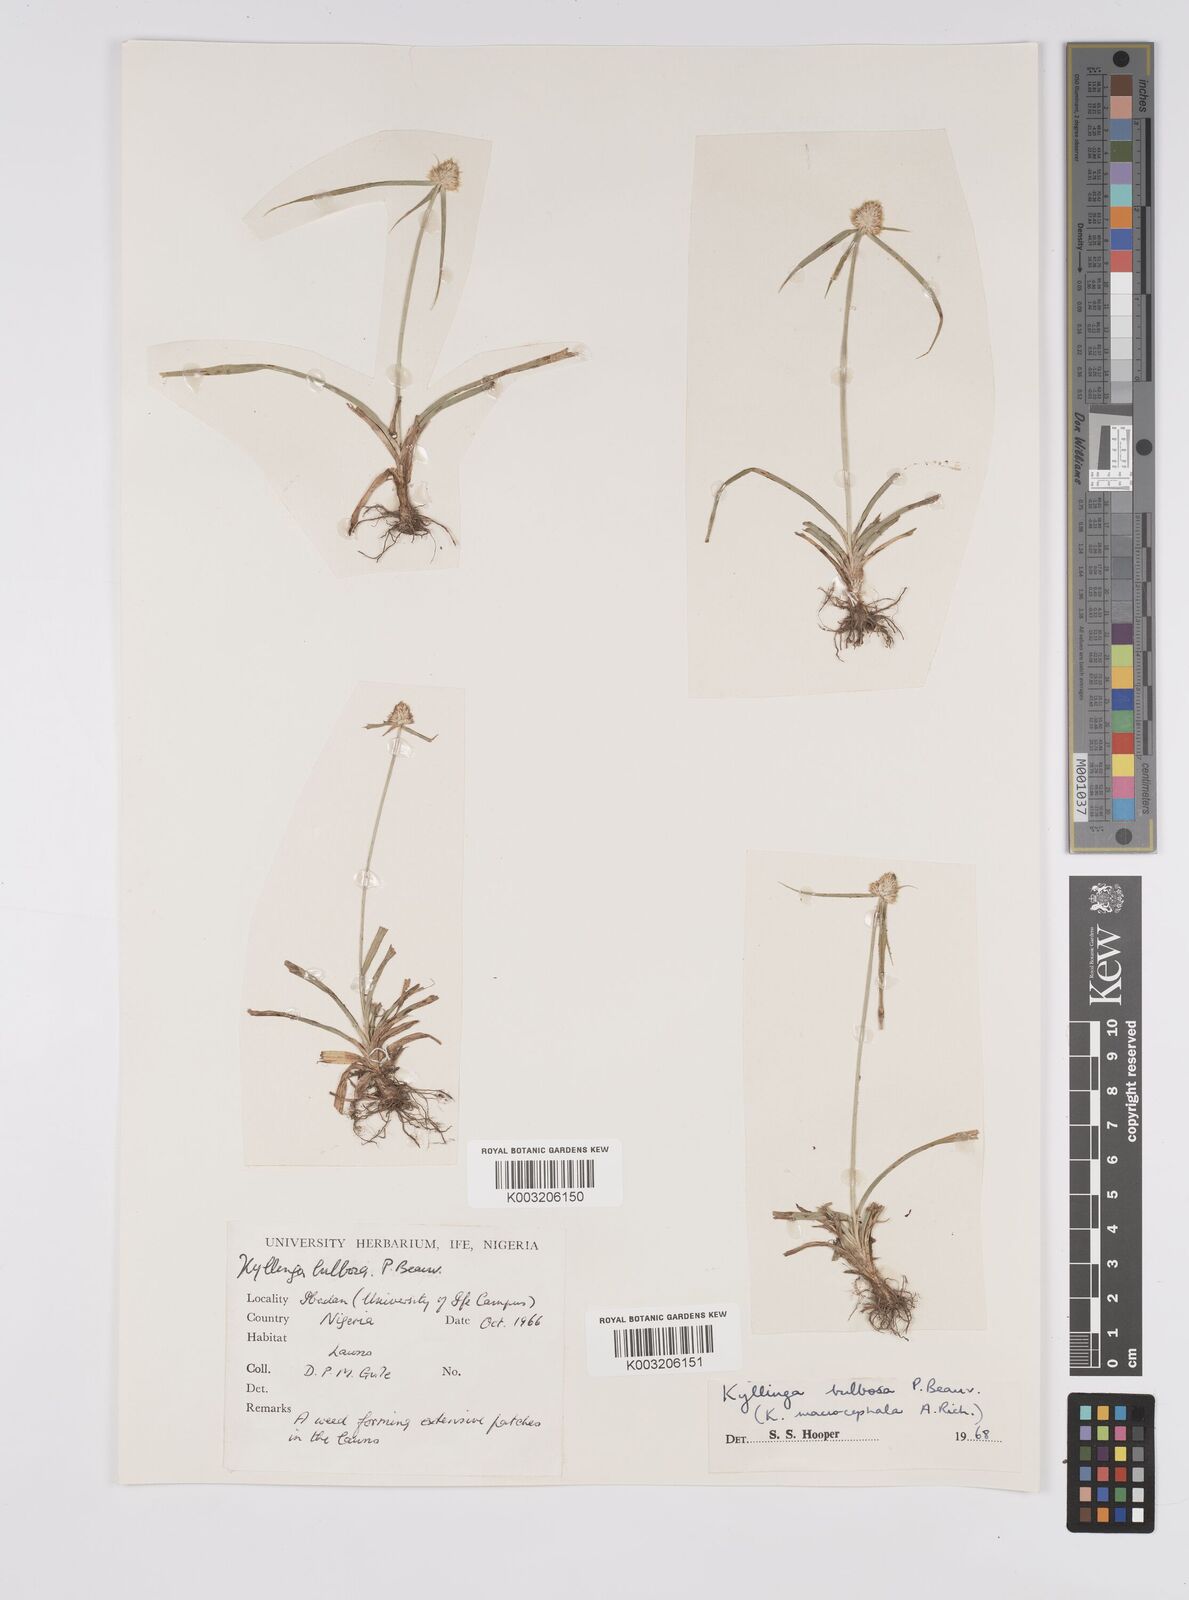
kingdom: Plantae
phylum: Tracheophyta
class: Liliopsida
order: Poales
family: Cyperaceae
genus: Cyperus
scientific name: Cyperus
